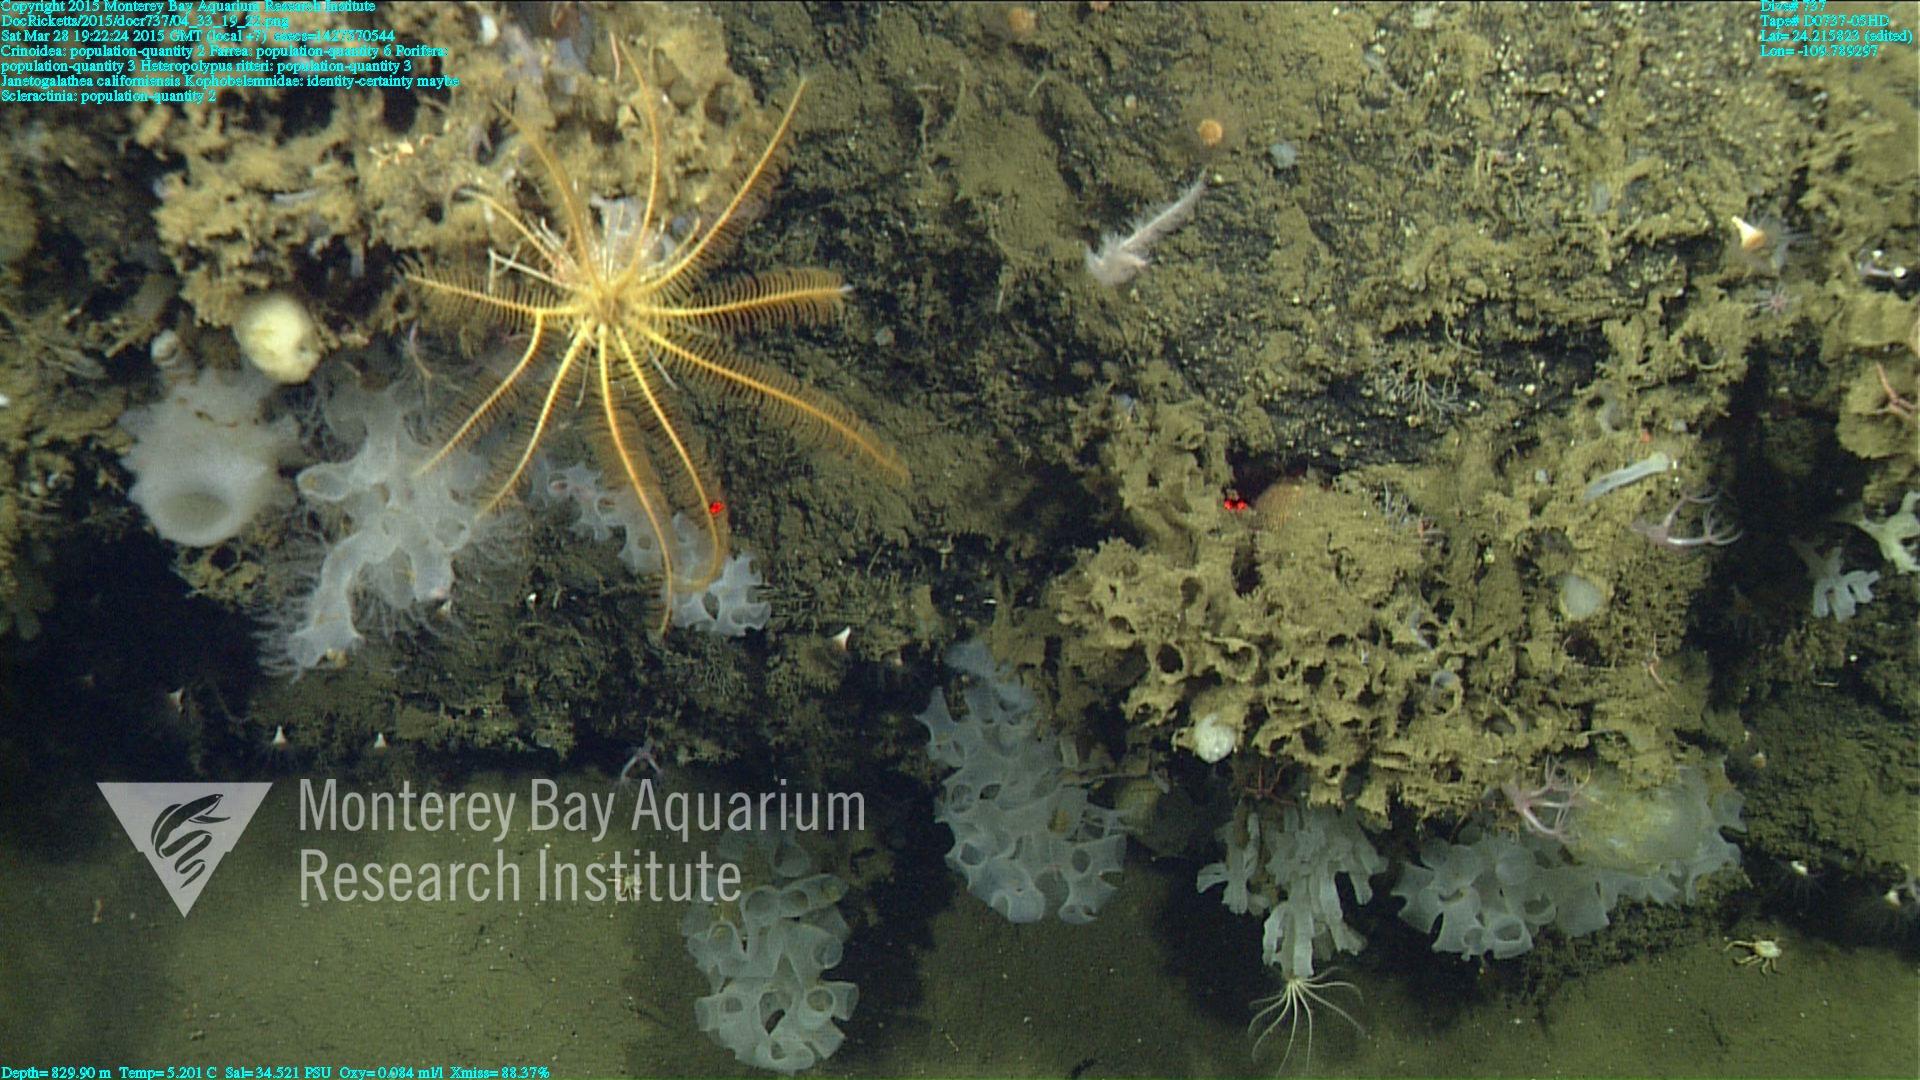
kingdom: Animalia
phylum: Cnidaria
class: Anthozoa
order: Scleractinia
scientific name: Scleractinia
